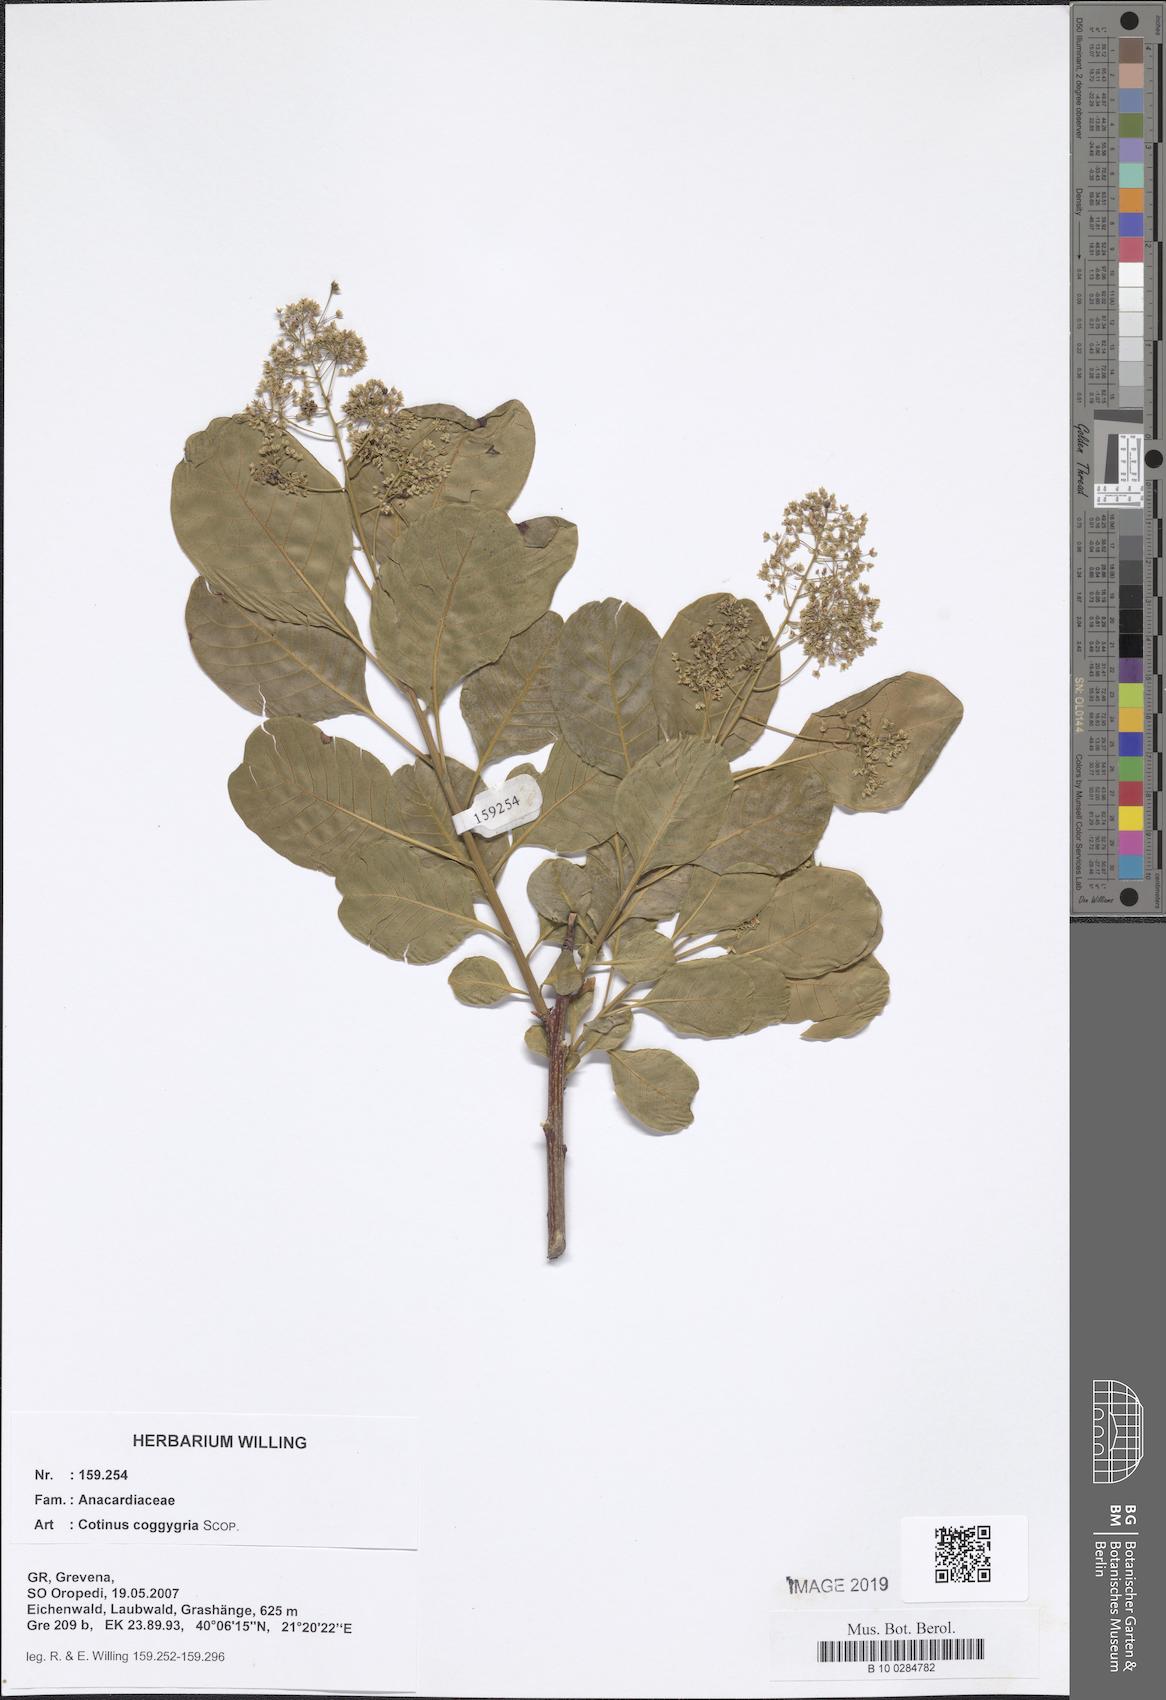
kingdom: Plantae
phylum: Tracheophyta
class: Magnoliopsida
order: Sapindales
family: Anacardiaceae
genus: Cotinus
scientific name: Cotinus coggygria
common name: Smoke-tree
